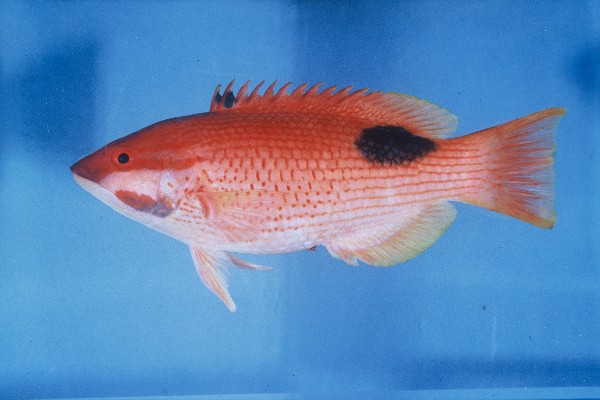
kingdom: Animalia
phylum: Chordata
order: Perciformes
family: Labridae
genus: Bodianus
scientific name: Bodianus bilunulatus
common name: Tarry hogfish
